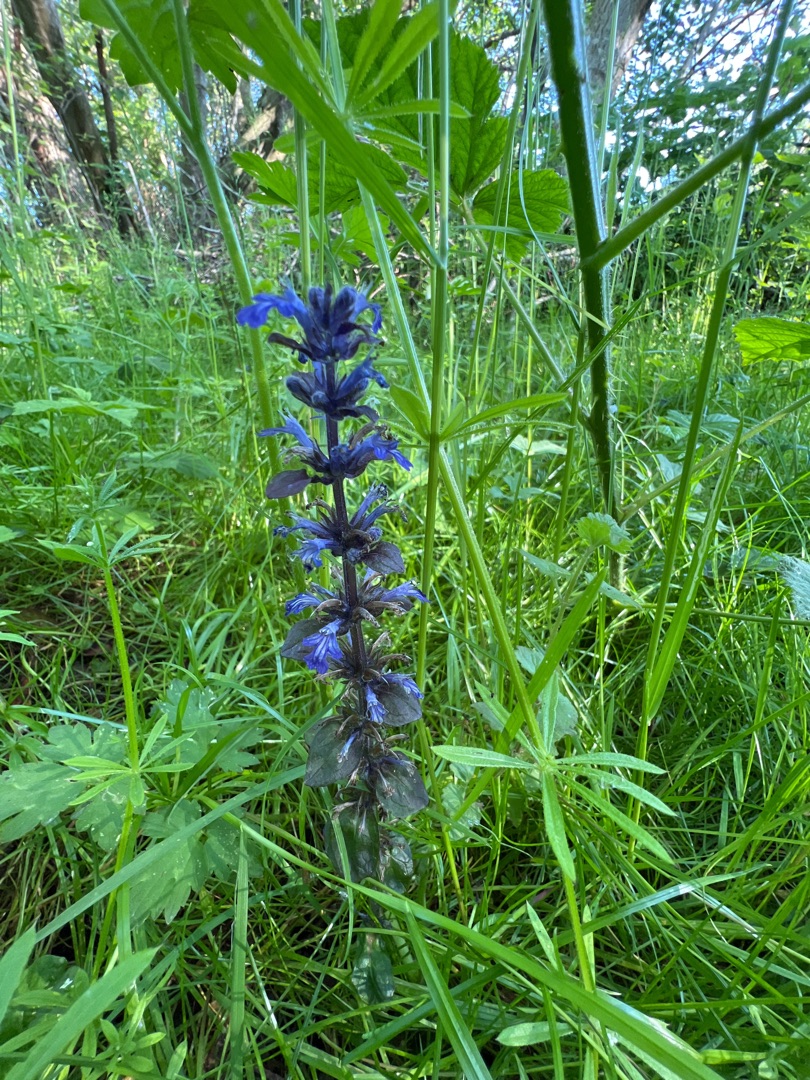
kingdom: Plantae
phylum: Tracheophyta
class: Magnoliopsida
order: Lamiales
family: Lamiaceae
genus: Ajuga
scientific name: Ajuga reptans
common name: Krybende læbeløs
